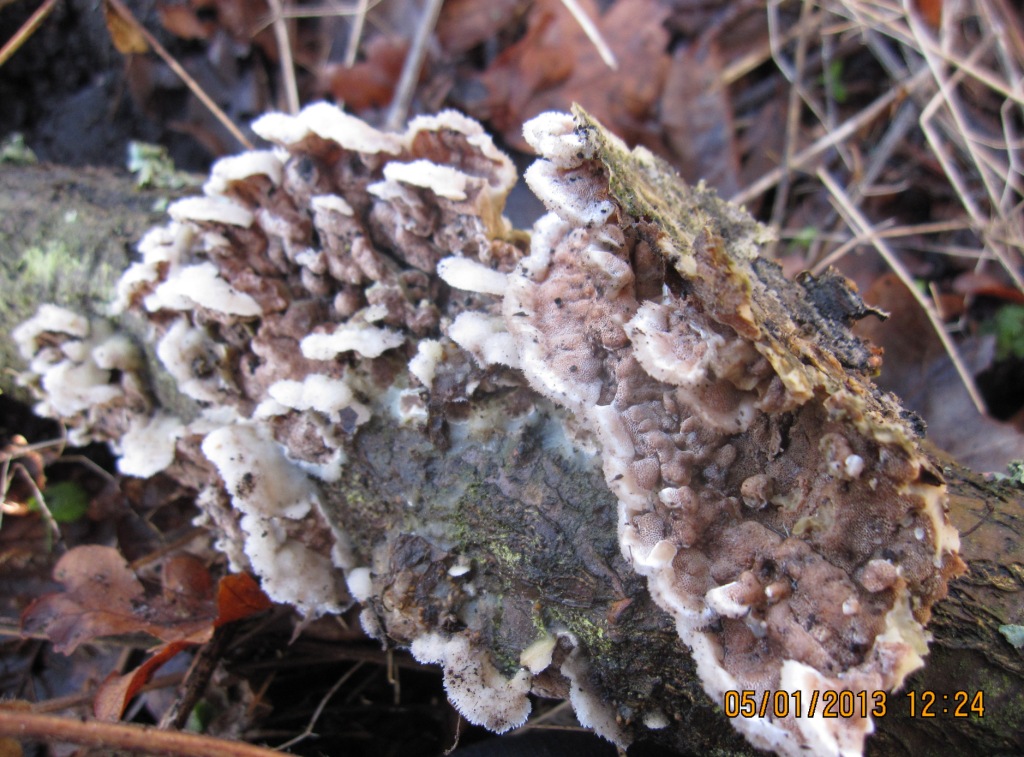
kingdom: Fungi
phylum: Basidiomycota
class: Agaricomycetes
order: Polyporales
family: Irpicaceae
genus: Vitreoporus
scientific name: Vitreoporus dichrous
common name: tofarvet foldporesvamp
